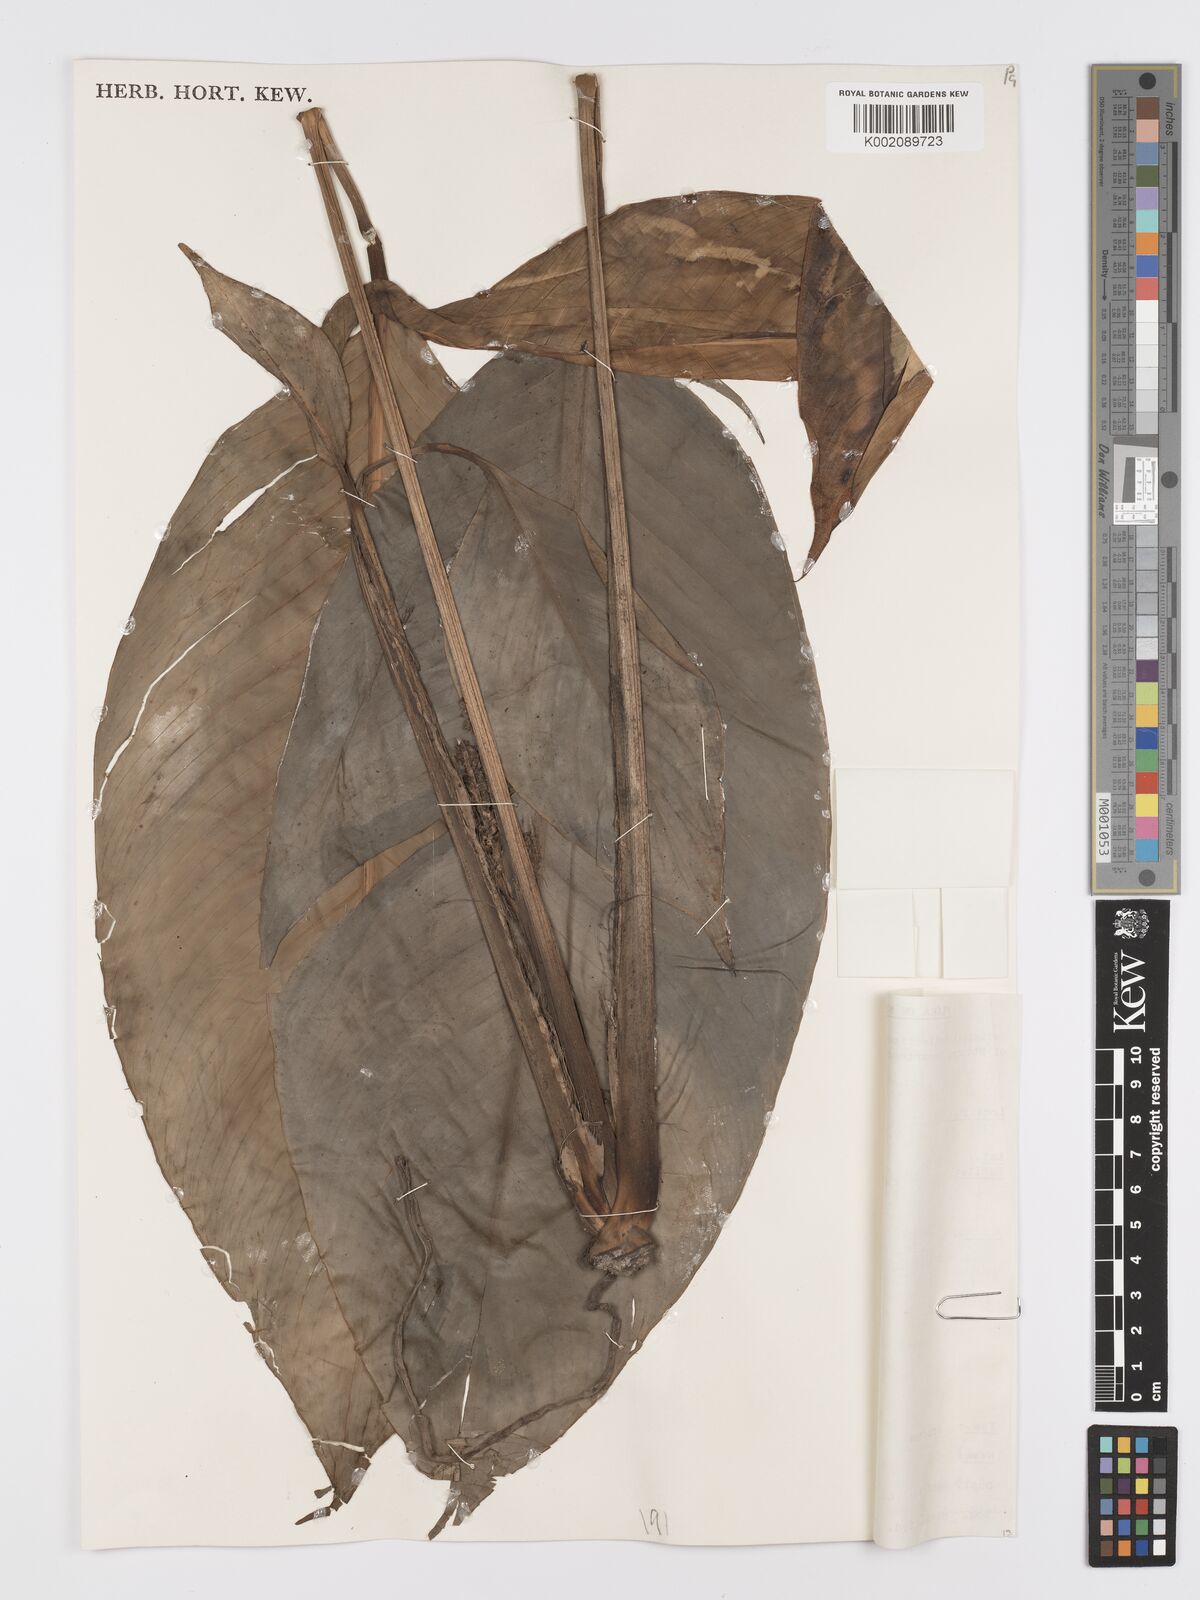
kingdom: Plantae
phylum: Tracheophyta
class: Liliopsida
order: Alismatales
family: Araceae
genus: Holochlamys
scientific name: Holochlamys beccarii
